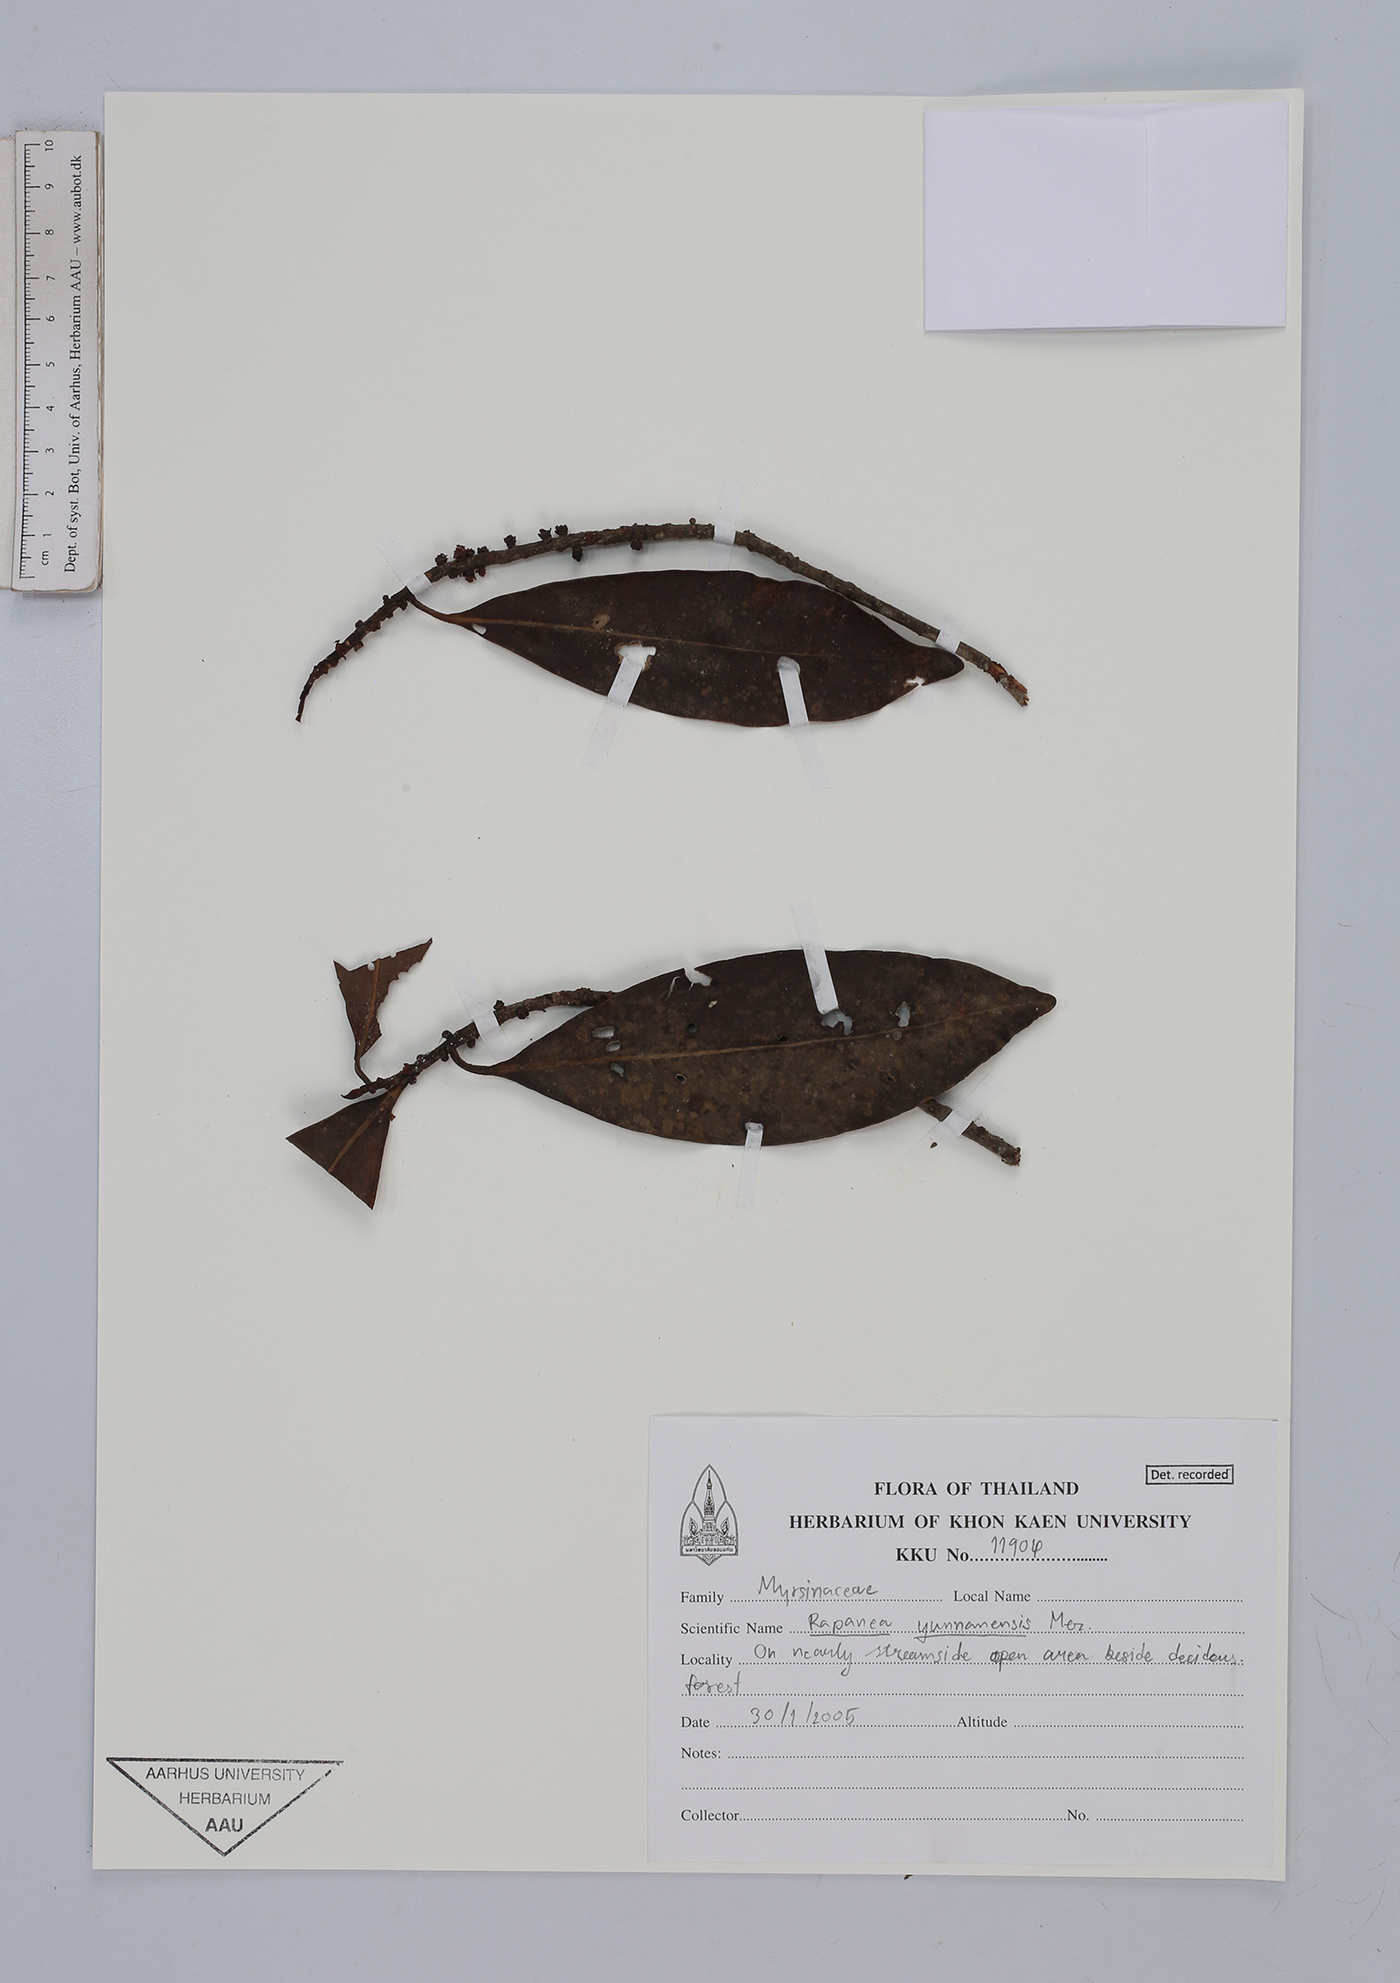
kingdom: Plantae
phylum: Tracheophyta
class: Magnoliopsida
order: Ericales
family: Primulaceae
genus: Myrsine
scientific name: Myrsine seguinii
